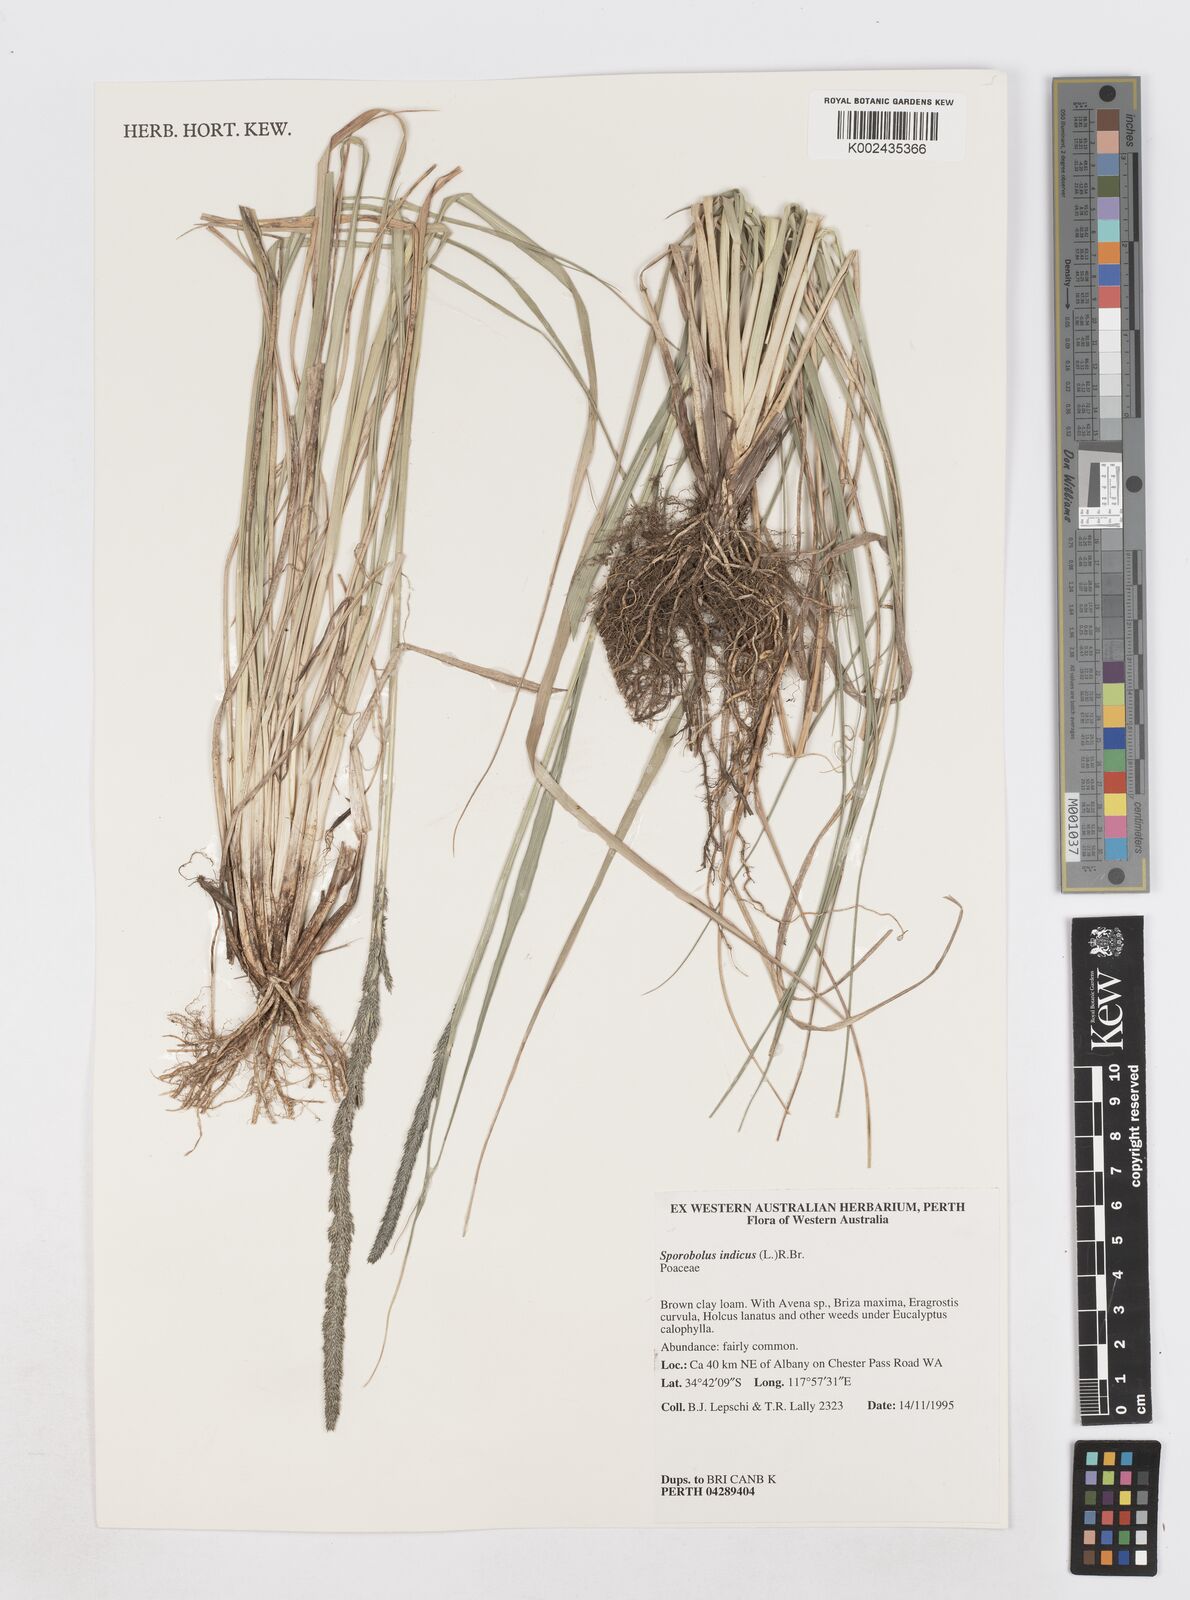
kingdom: Plantae
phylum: Tracheophyta
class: Liliopsida
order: Poales
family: Poaceae
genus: Sporobolus
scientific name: Sporobolus africanus
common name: African dropseed
